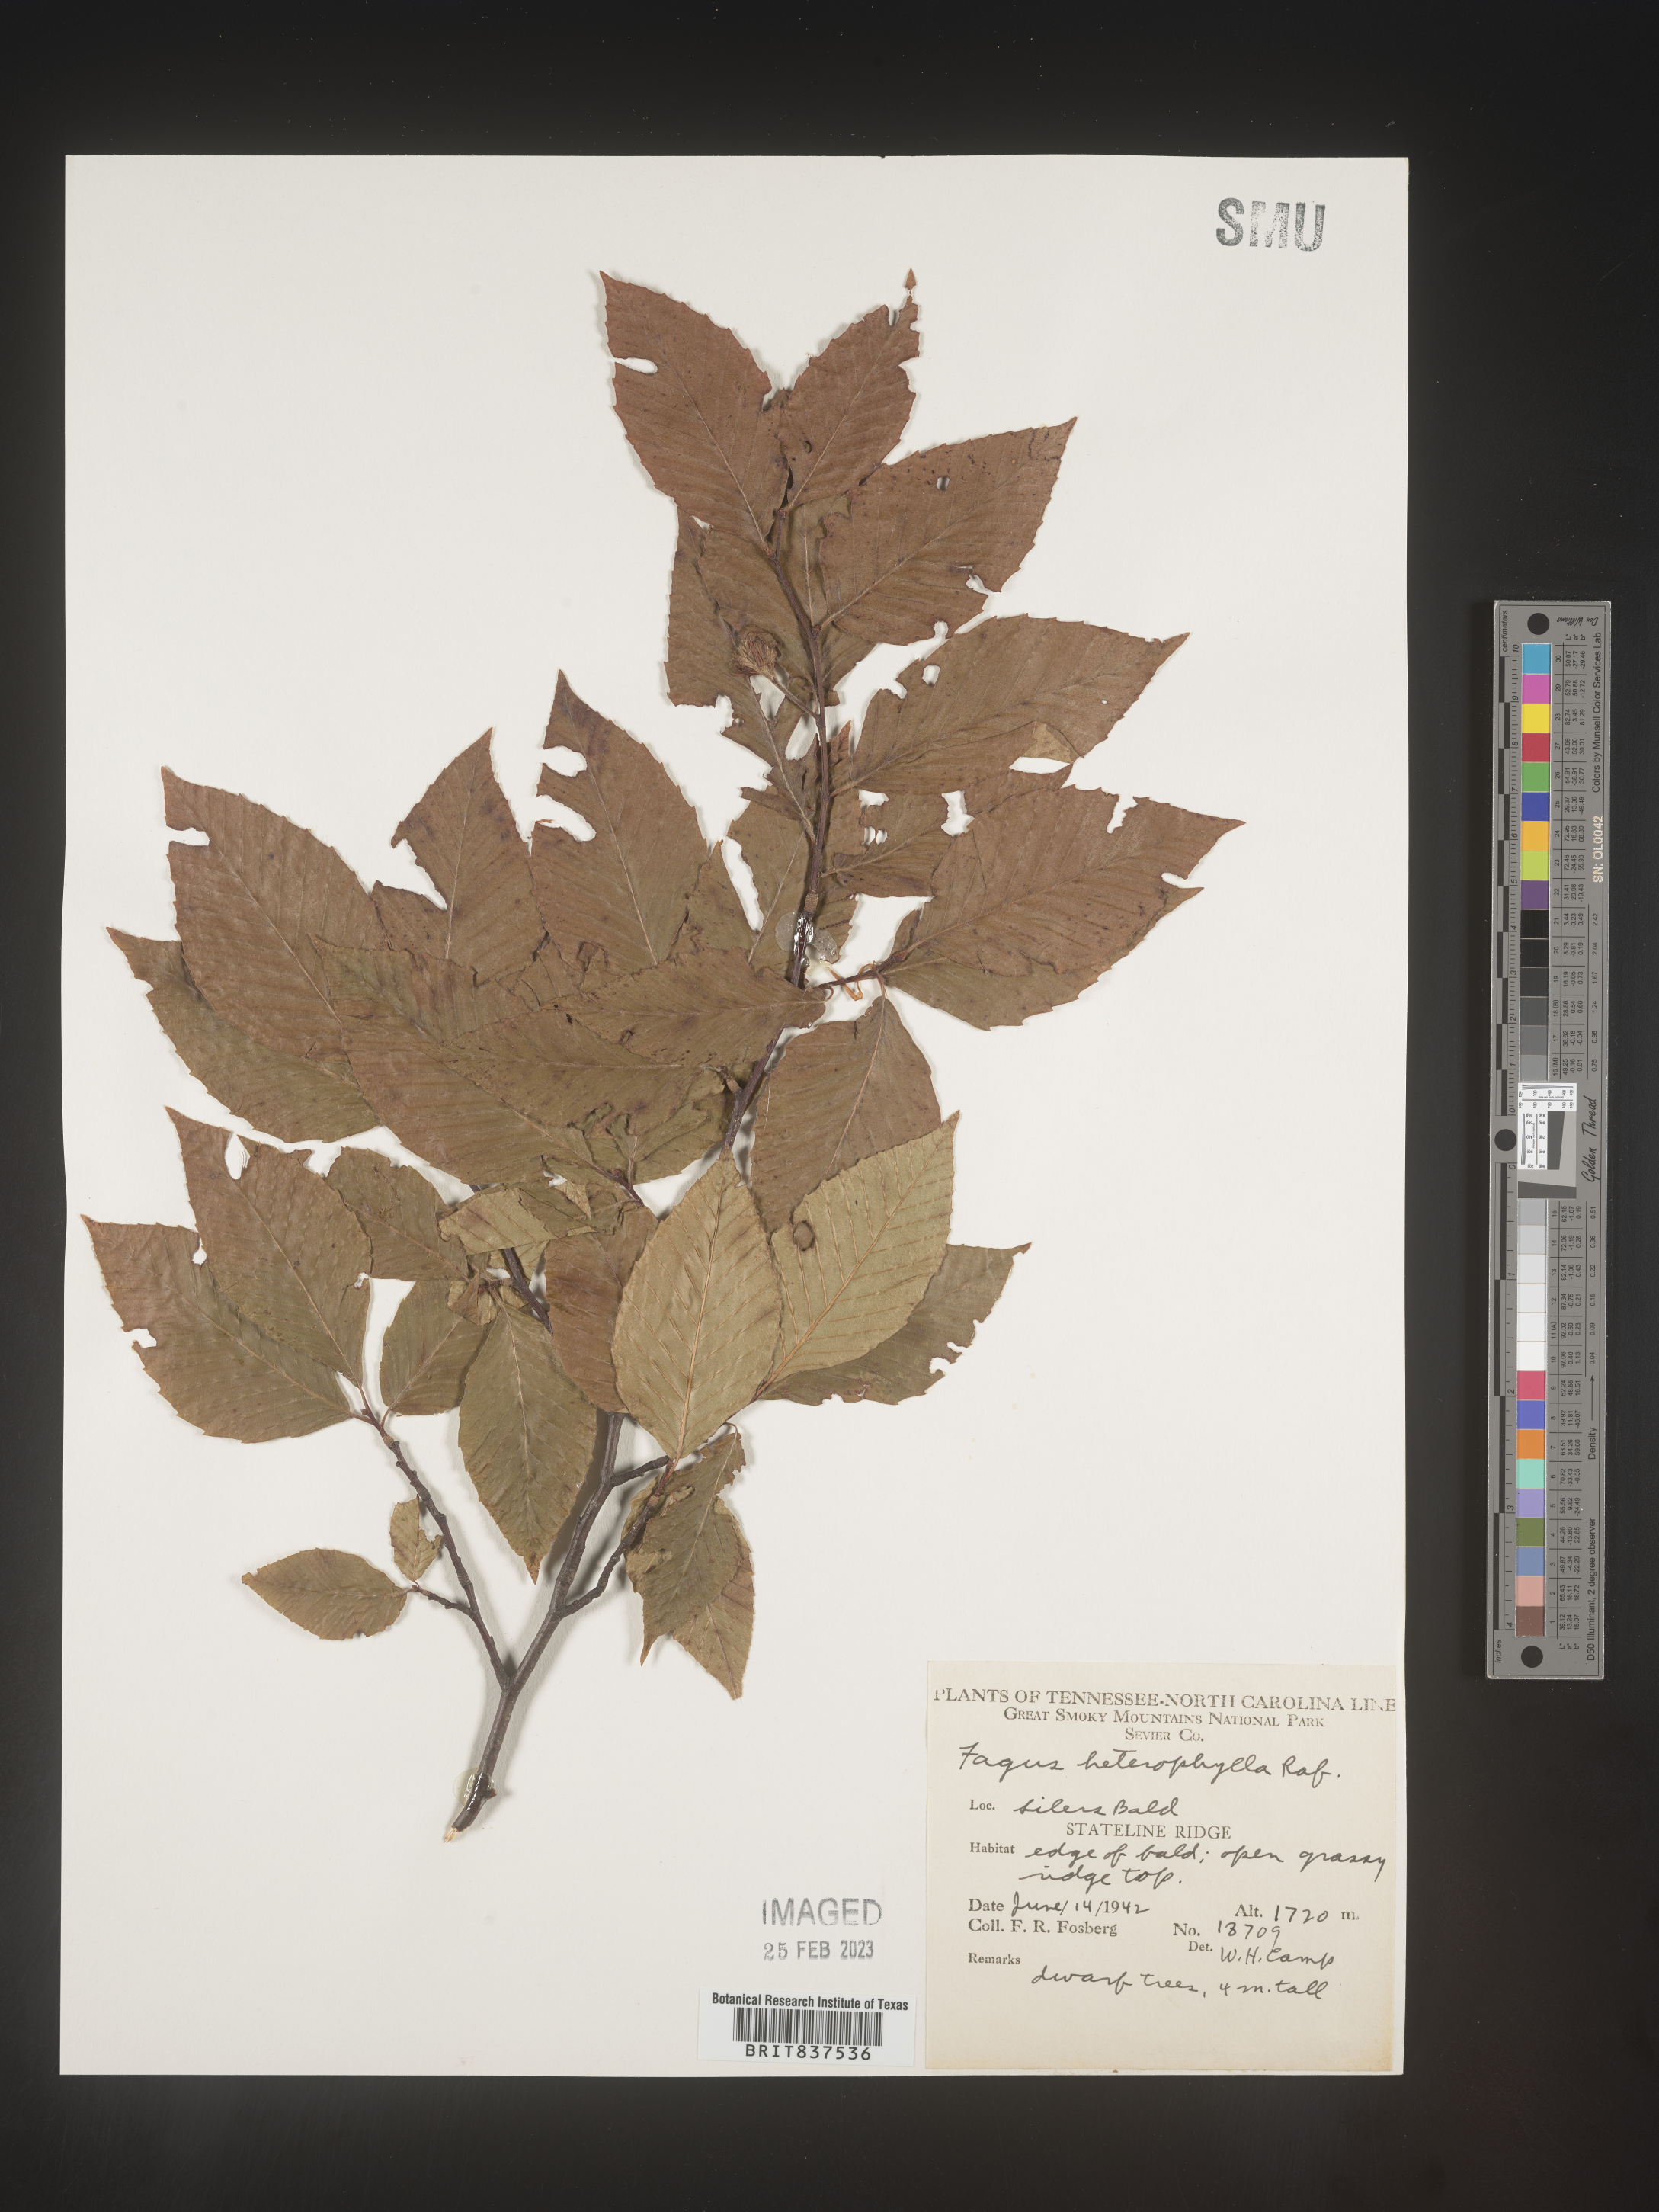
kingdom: Plantae
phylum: Tracheophyta
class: Magnoliopsida
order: Fagales
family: Fagaceae
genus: Fagus
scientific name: Fagus grandifolia
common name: American beech
